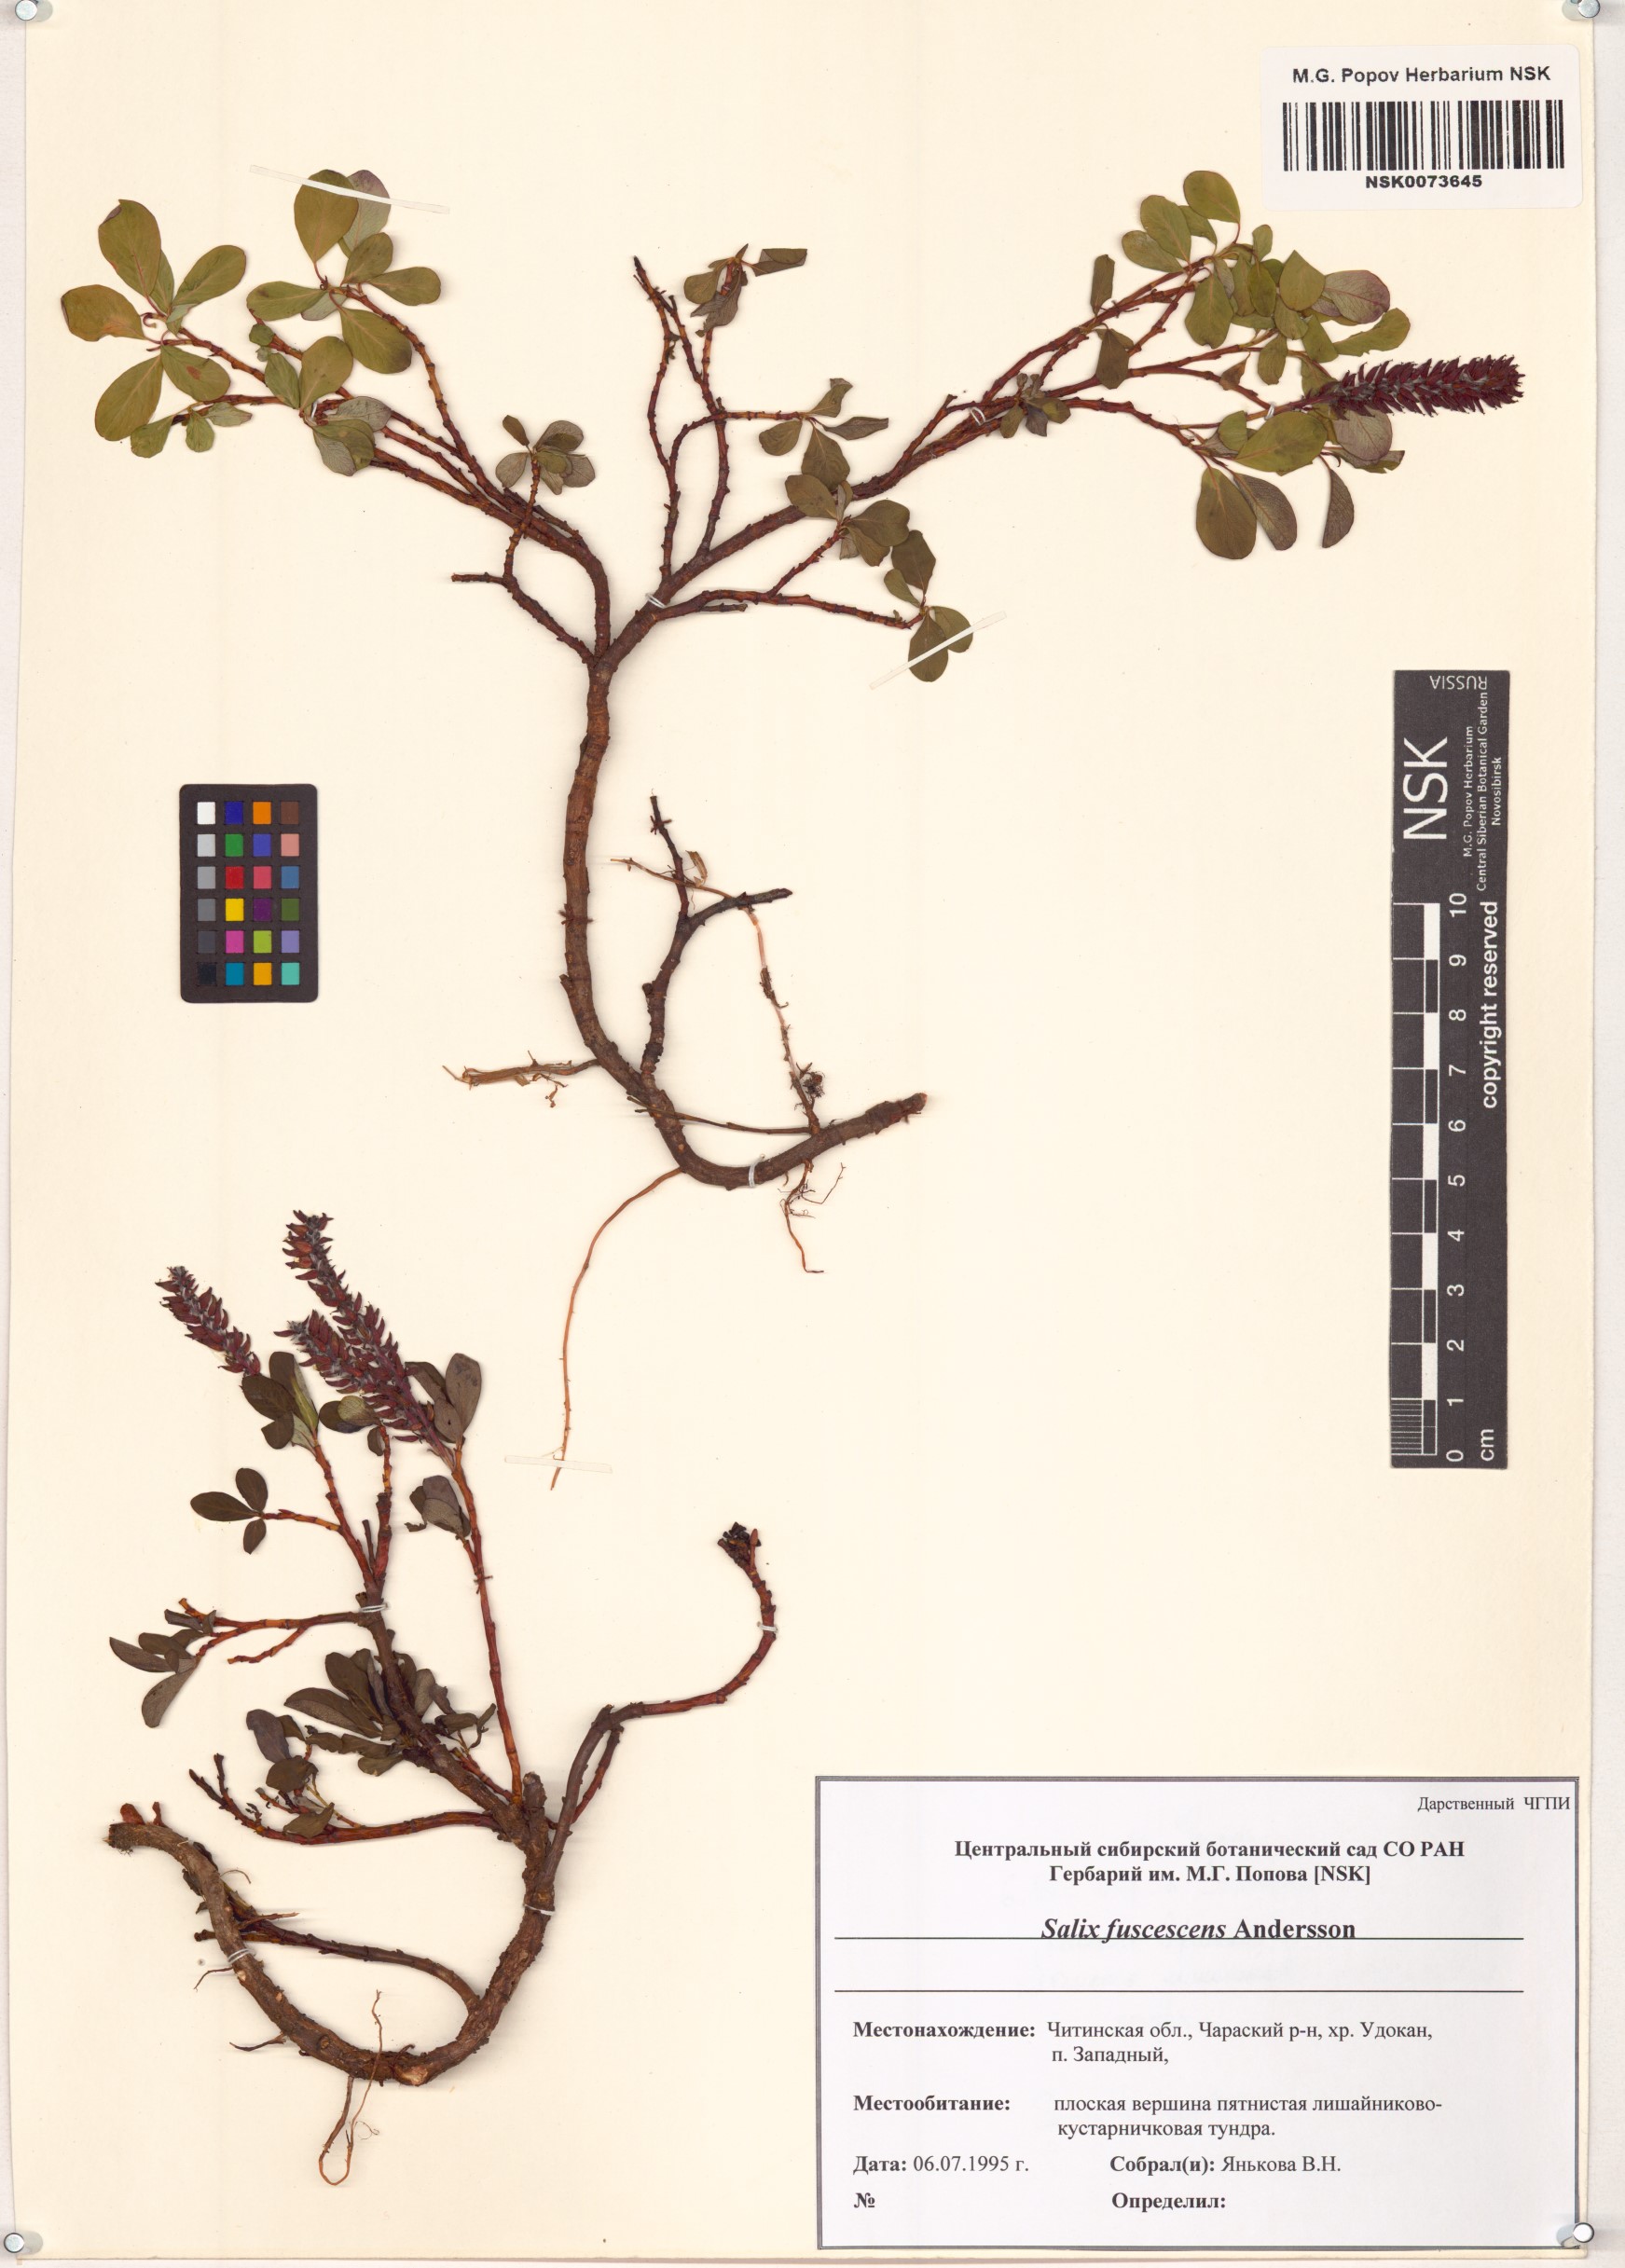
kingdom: Plantae
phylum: Tracheophyta
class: Magnoliopsida
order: Malpighiales
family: Salicaceae
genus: Salix
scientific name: Salix fuscescens
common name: Brownish willow
